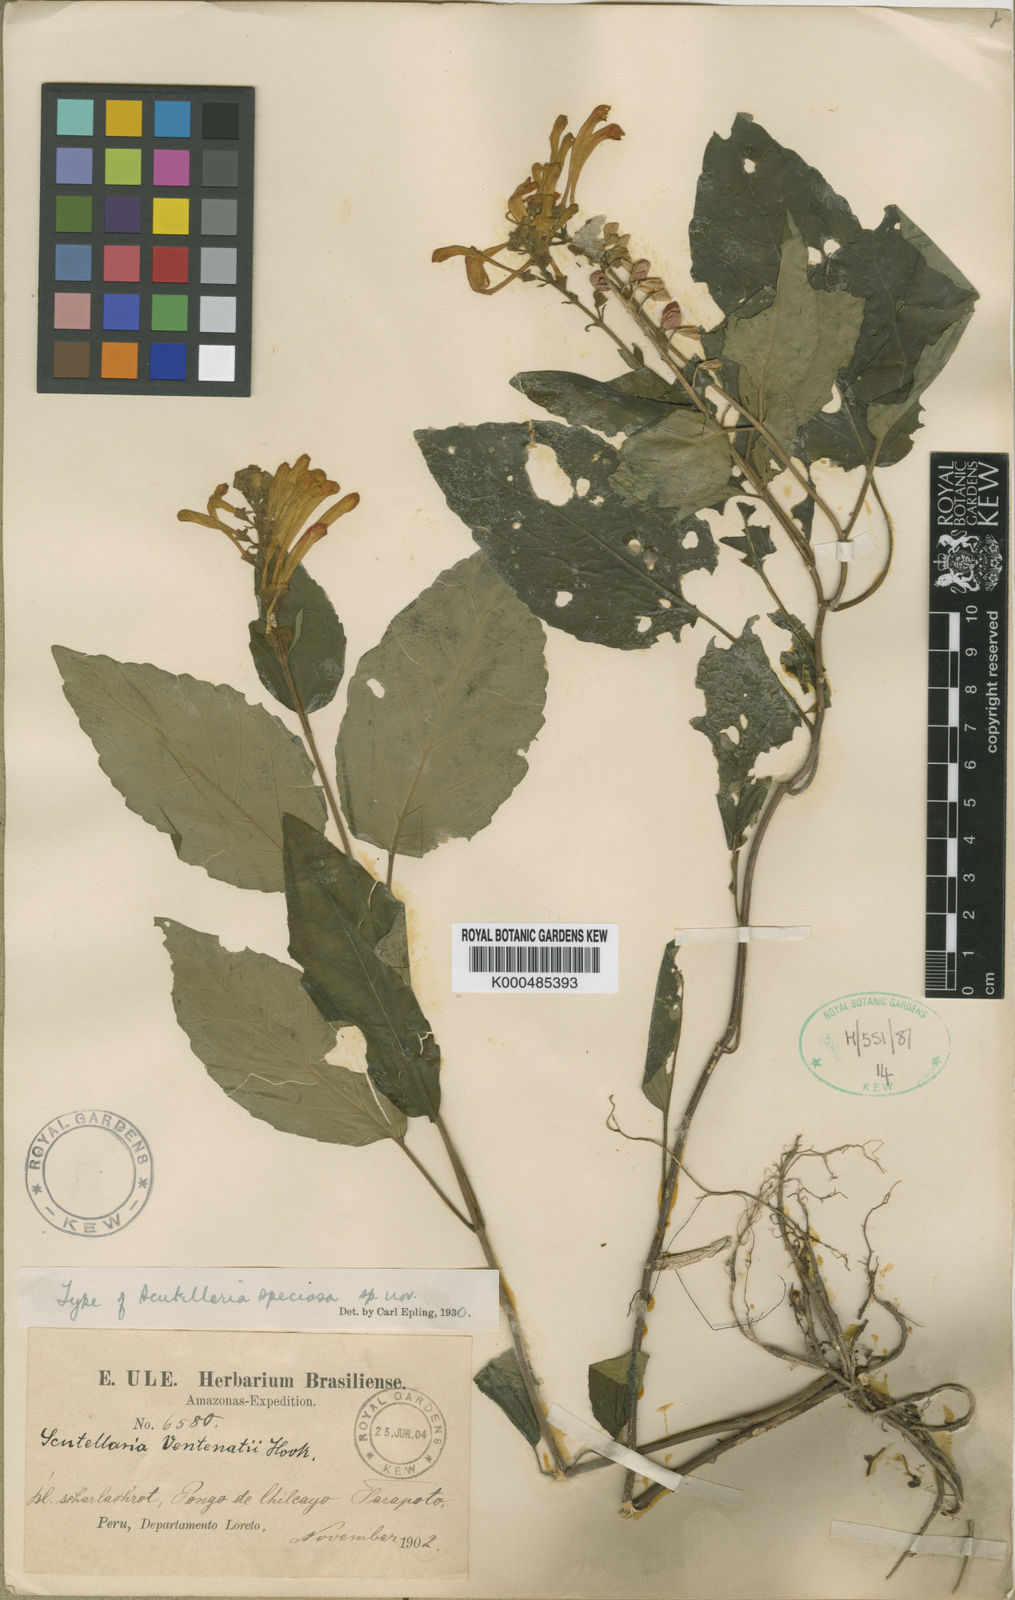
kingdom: Plantae
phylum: Tracheophyta
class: Magnoliopsida
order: Lamiales
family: Lamiaceae
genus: Scutellaria
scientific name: Scutellaria aurata
